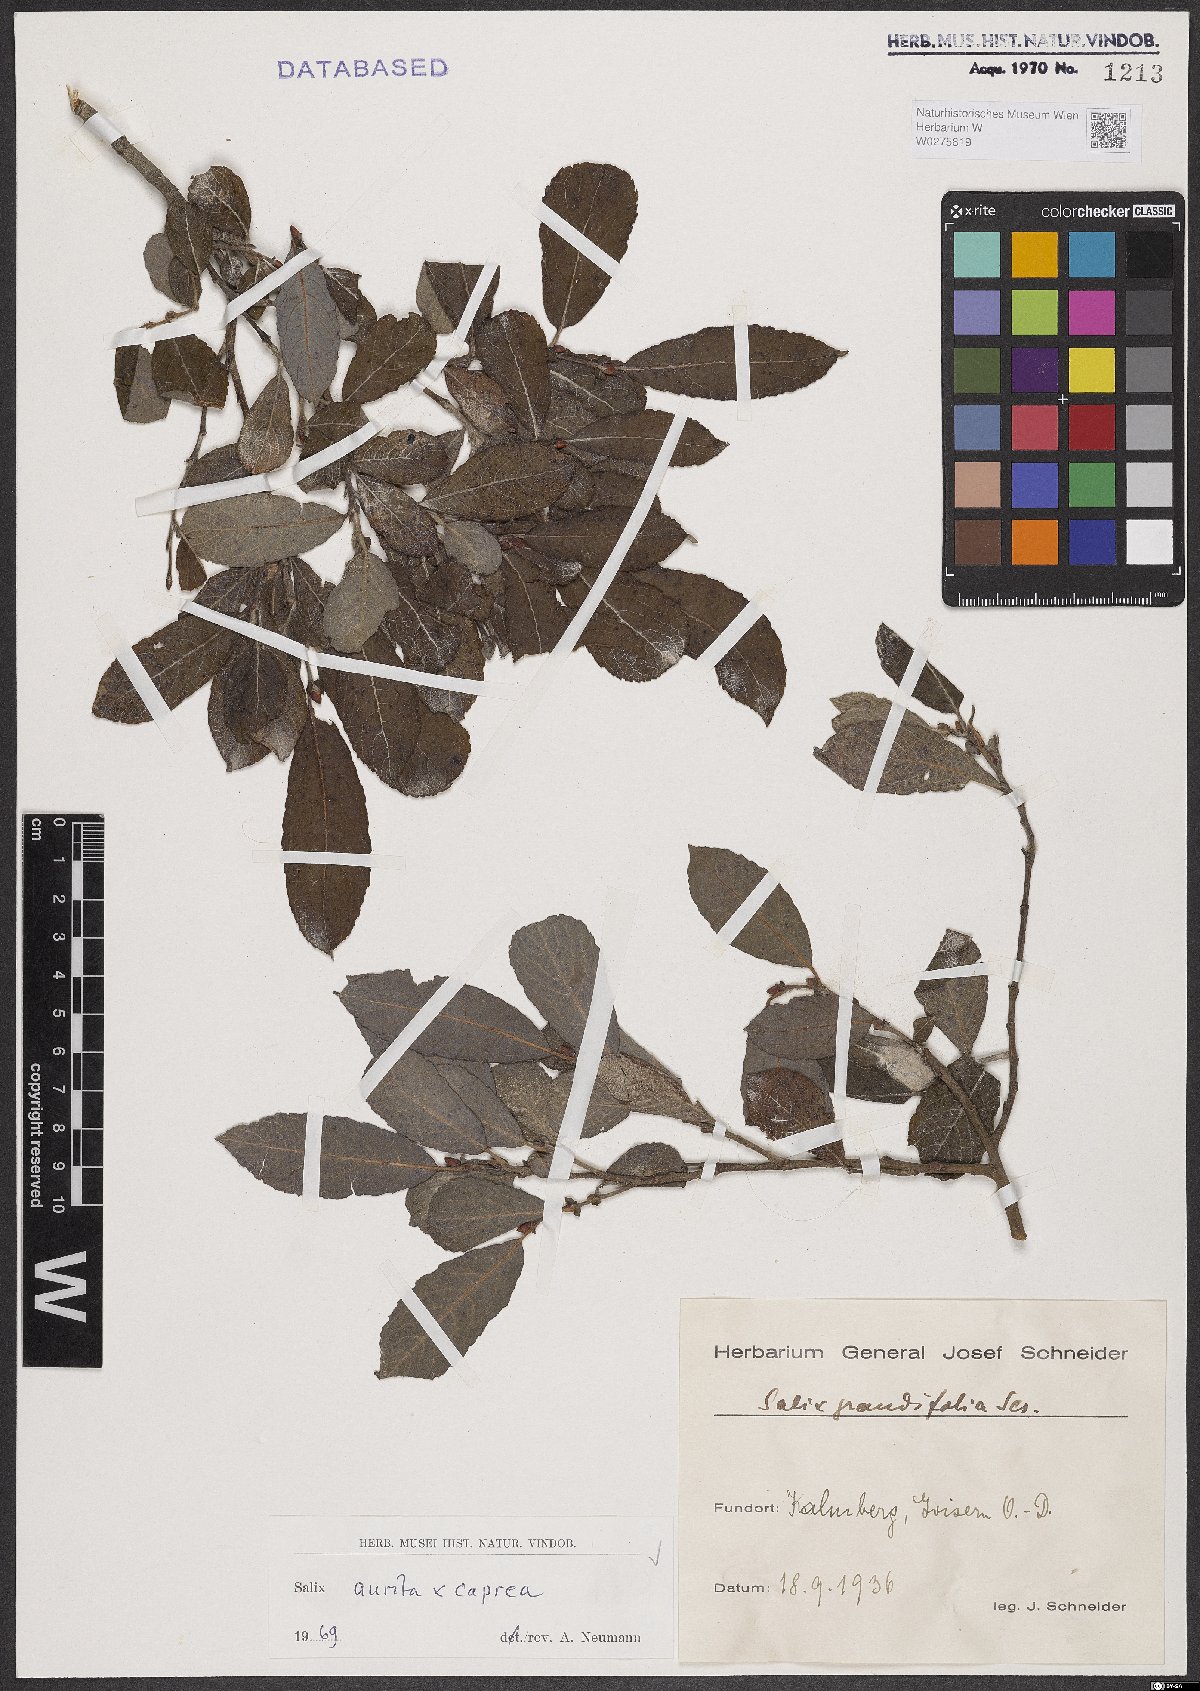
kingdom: Plantae
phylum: Tracheophyta
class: Magnoliopsida
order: Malpighiales
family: Salicaceae
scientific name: Salicaceae
